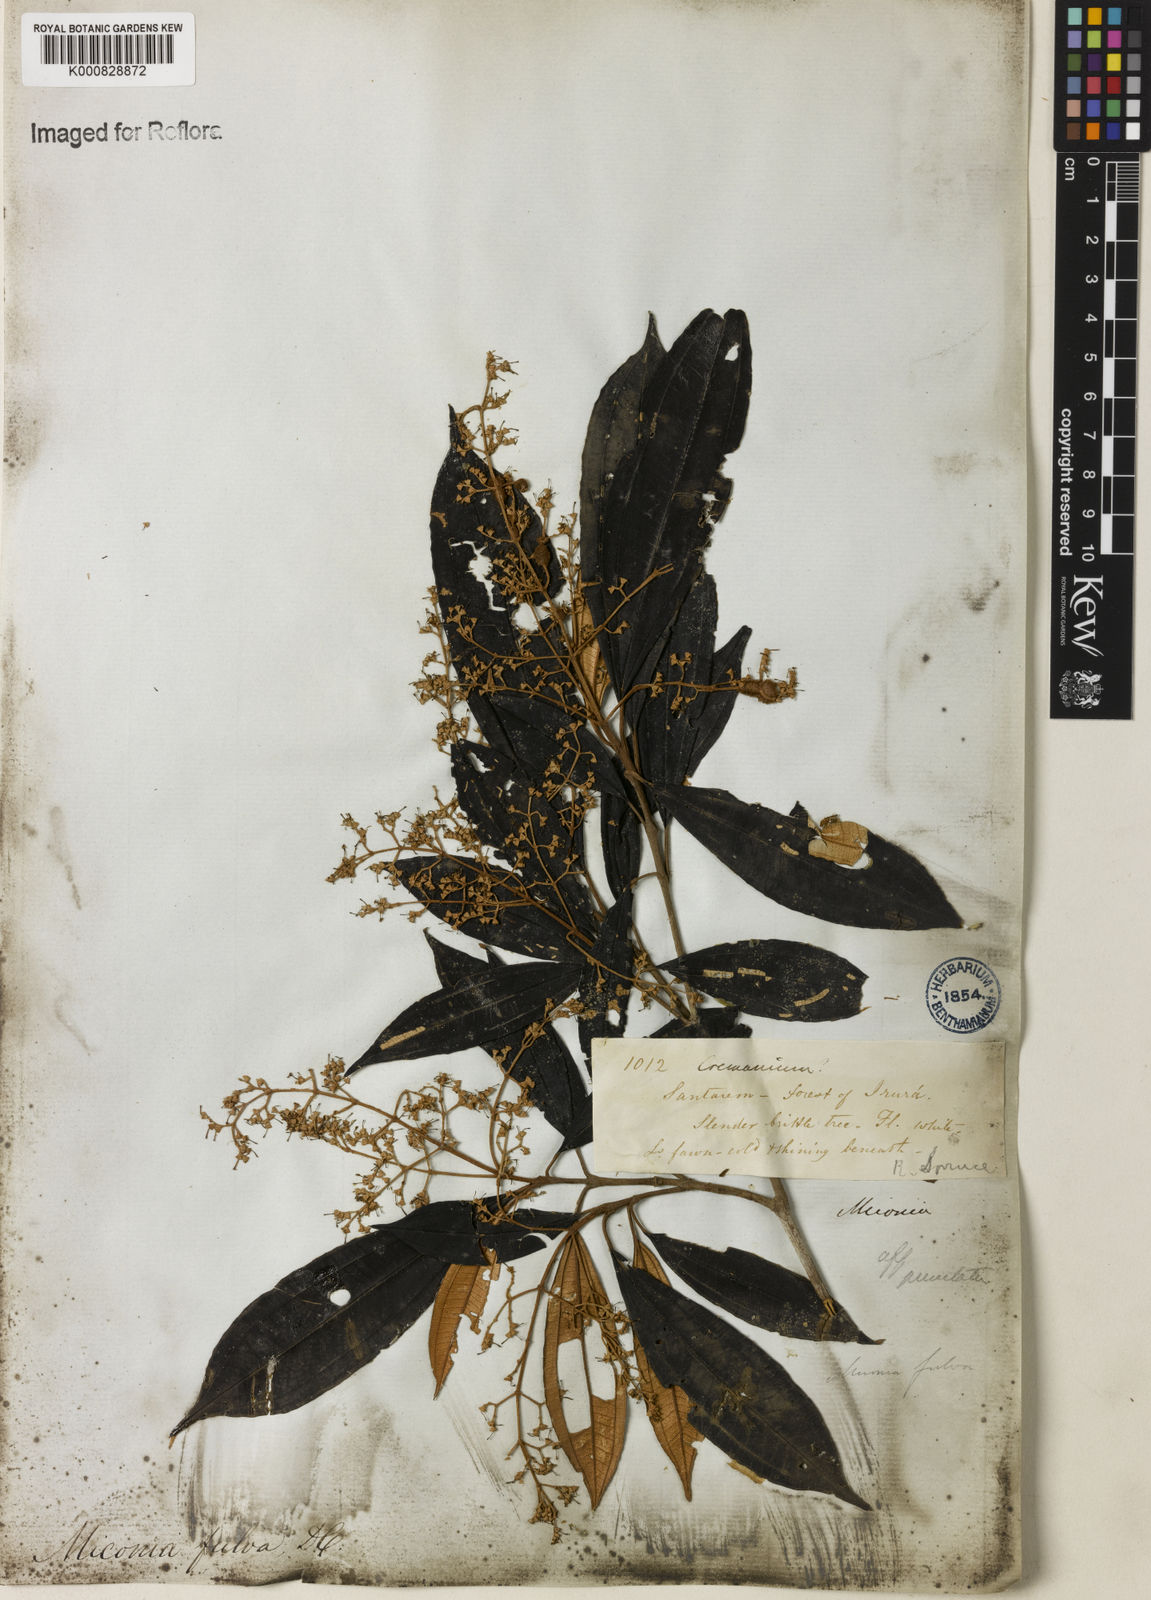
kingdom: Plantae
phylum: Tracheophyta
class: Magnoliopsida
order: Myrtales
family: Melastomataceae
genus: Miconia
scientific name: Miconia chrysophylla
